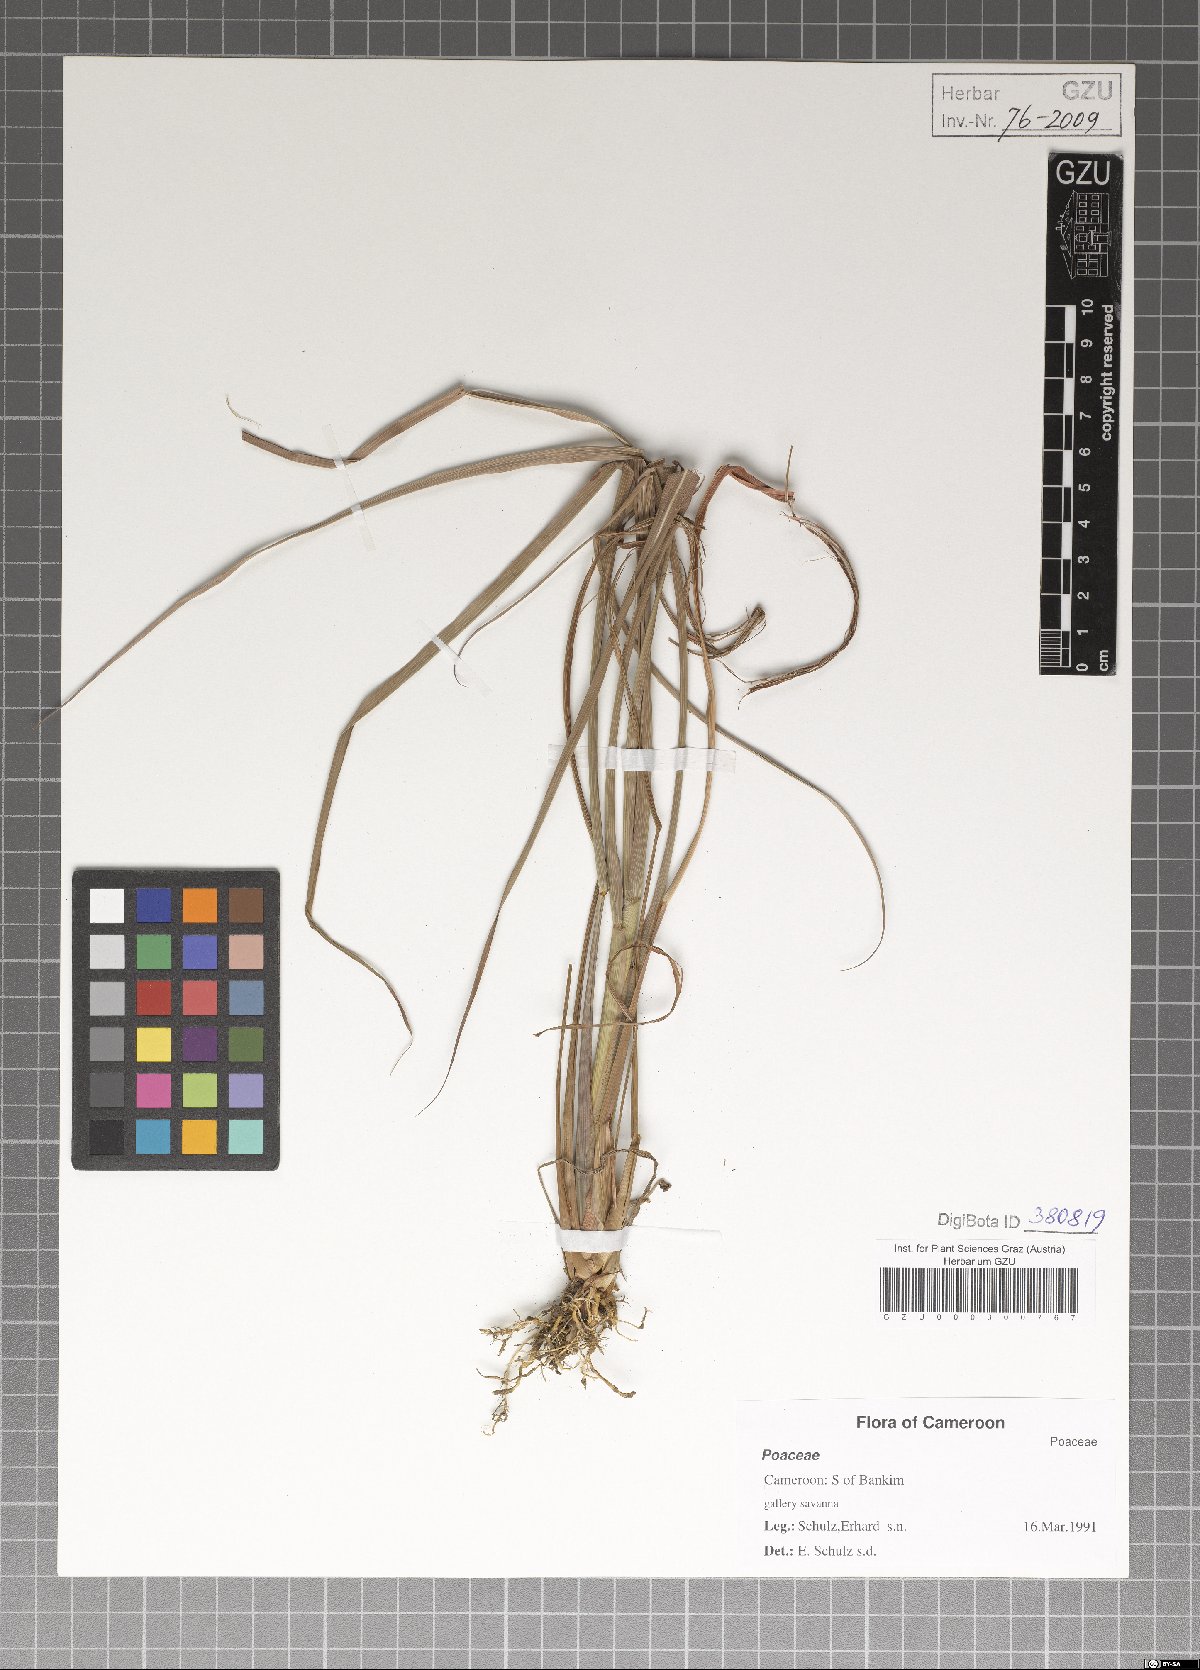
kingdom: Plantae
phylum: Tracheophyta
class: Liliopsida
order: Poales
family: Poaceae
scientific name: Poaceae
